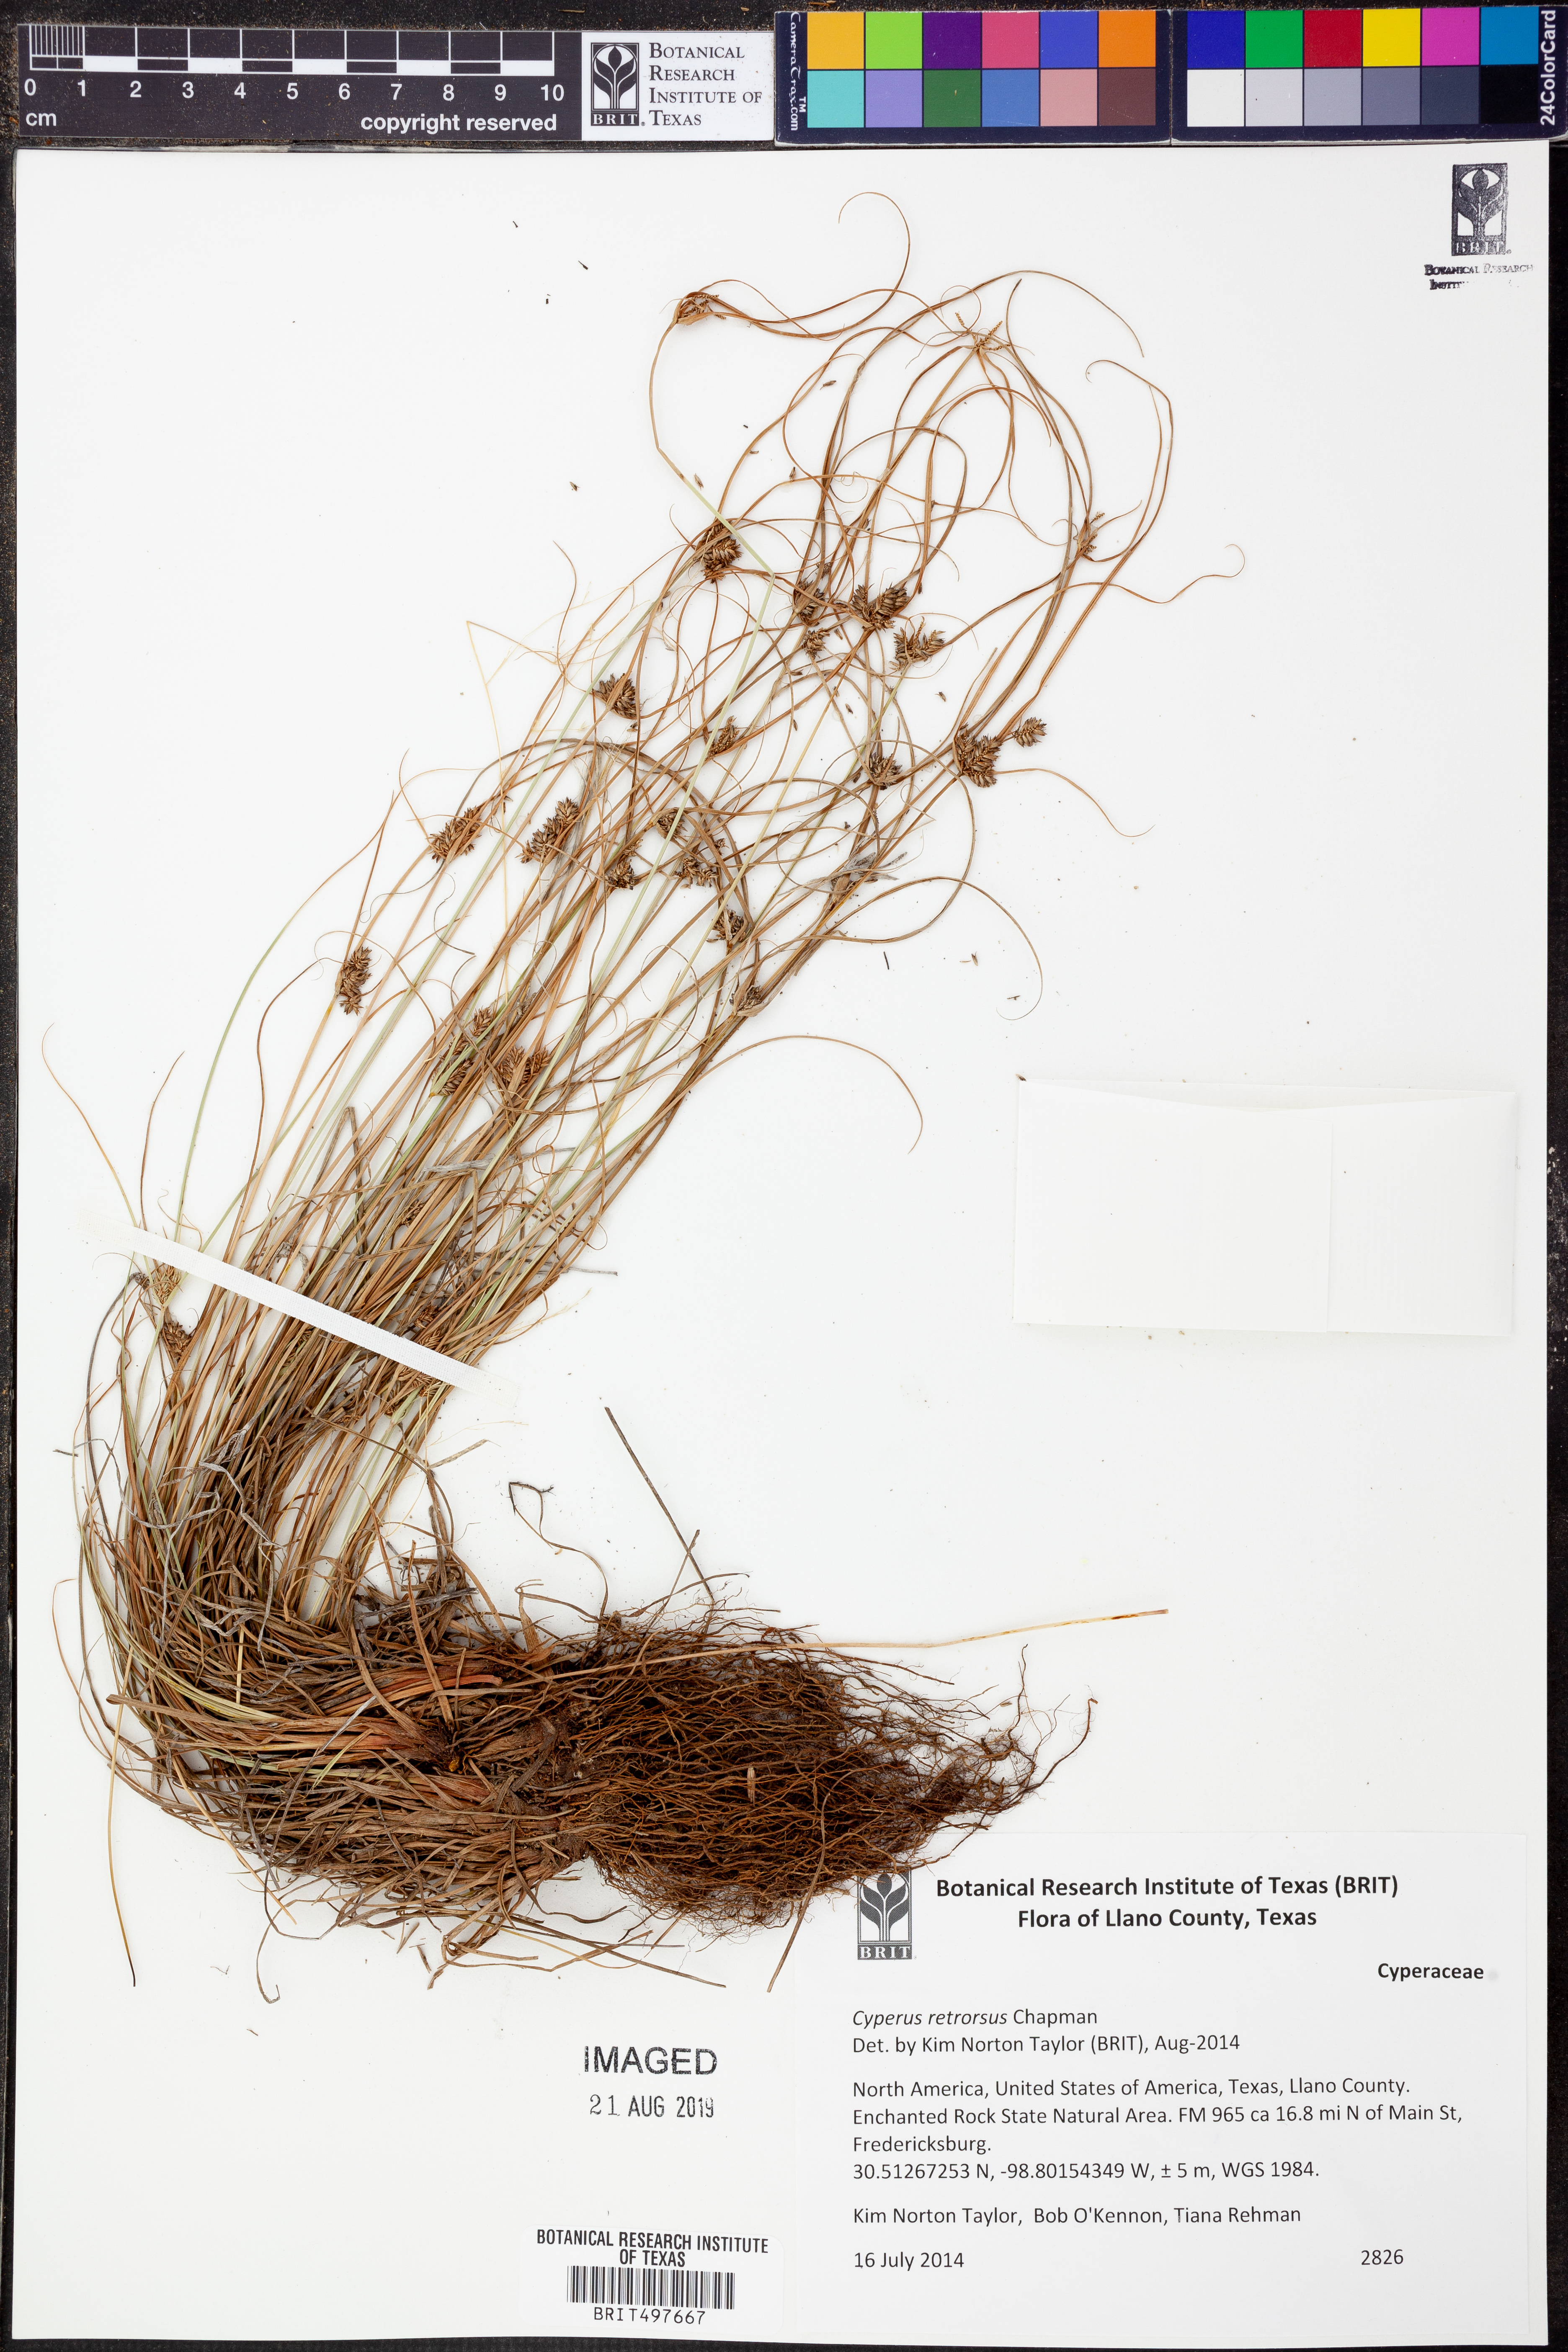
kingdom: Plantae
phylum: Tracheophyta
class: Liliopsida
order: Poales
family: Cyperaceae
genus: Cyperus
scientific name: Cyperus retrorsus
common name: Pinebarren flat sedge
